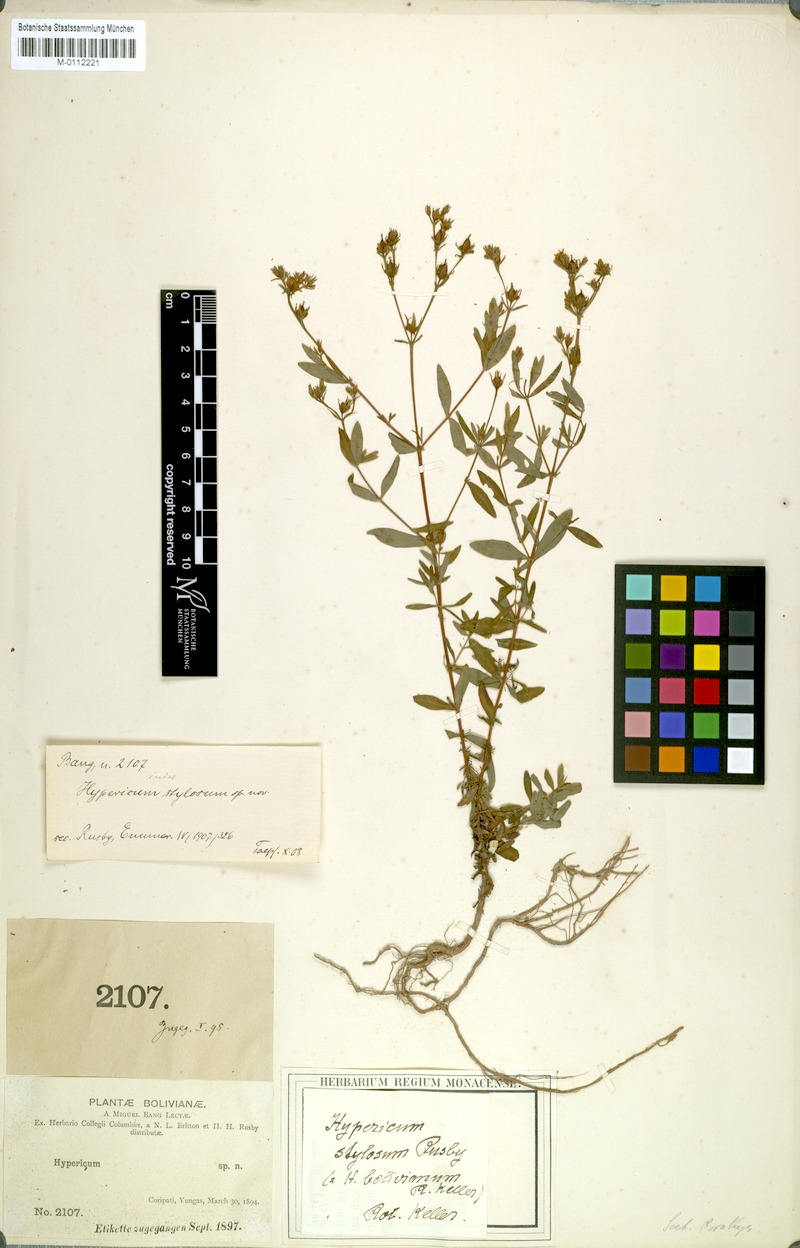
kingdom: Plantae
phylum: Tracheophyta
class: Magnoliopsida
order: Malpighiales
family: Hypericaceae
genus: Hypericum
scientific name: Hypericum brasiliense
